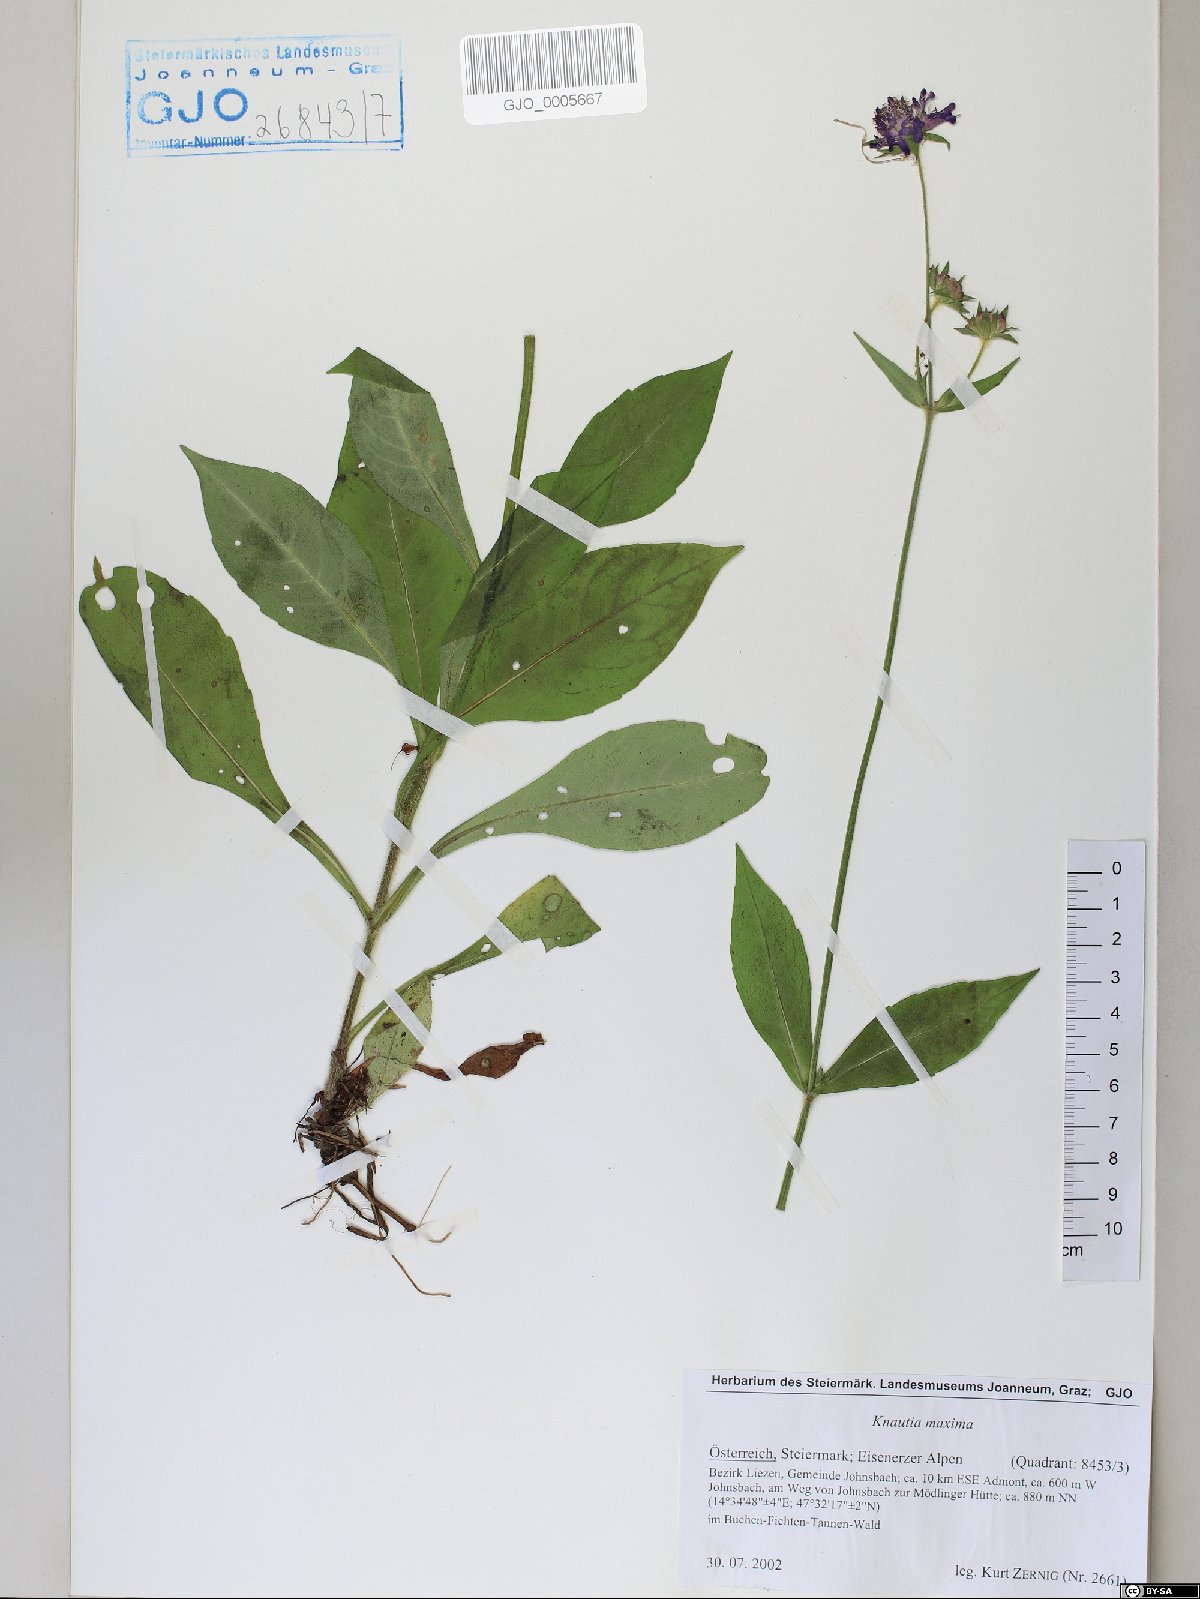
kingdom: Plantae
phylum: Tracheophyta
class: Magnoliopsida
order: Dipsacales
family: Caprifoliaceae
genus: Knautia
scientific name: Knautia dipsacifolia
